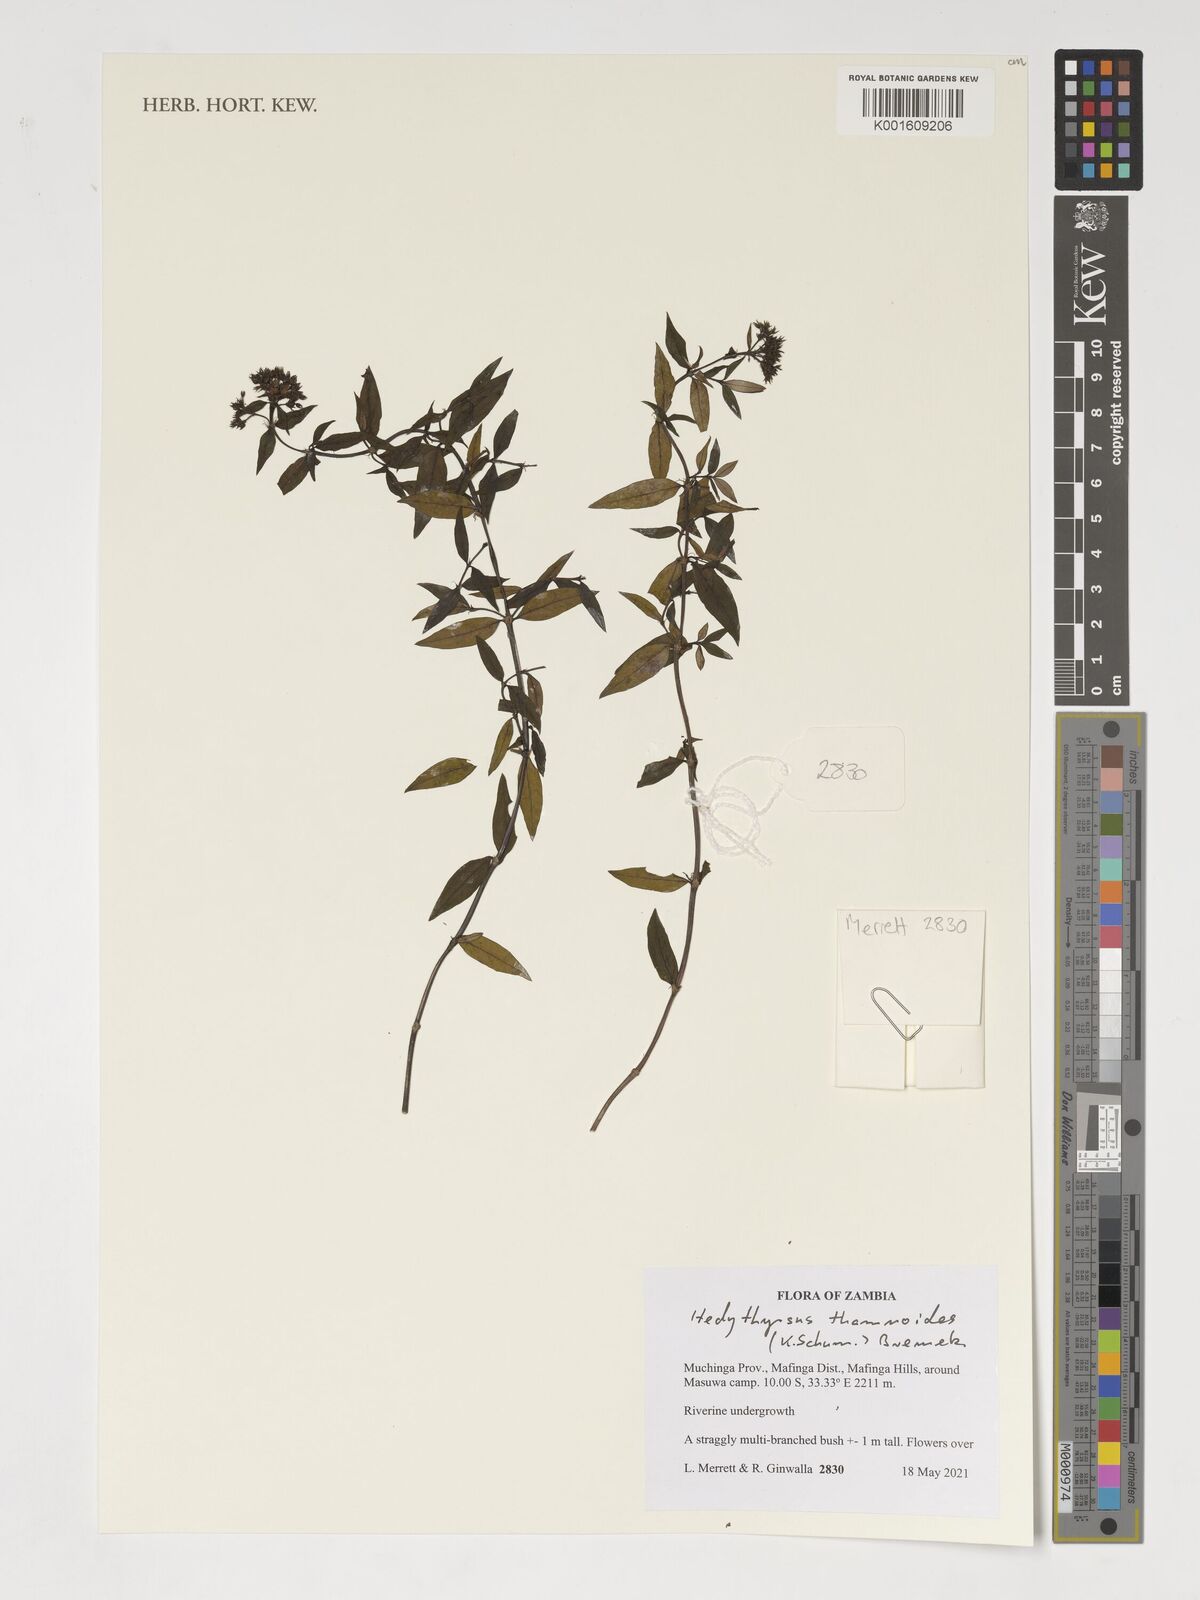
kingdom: Plantae
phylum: Tracheophyta
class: Magnoliopsida
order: Gentianales
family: Rubiaceae
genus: Hedythyrsus
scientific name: Hedythyrsus thamnoideus
